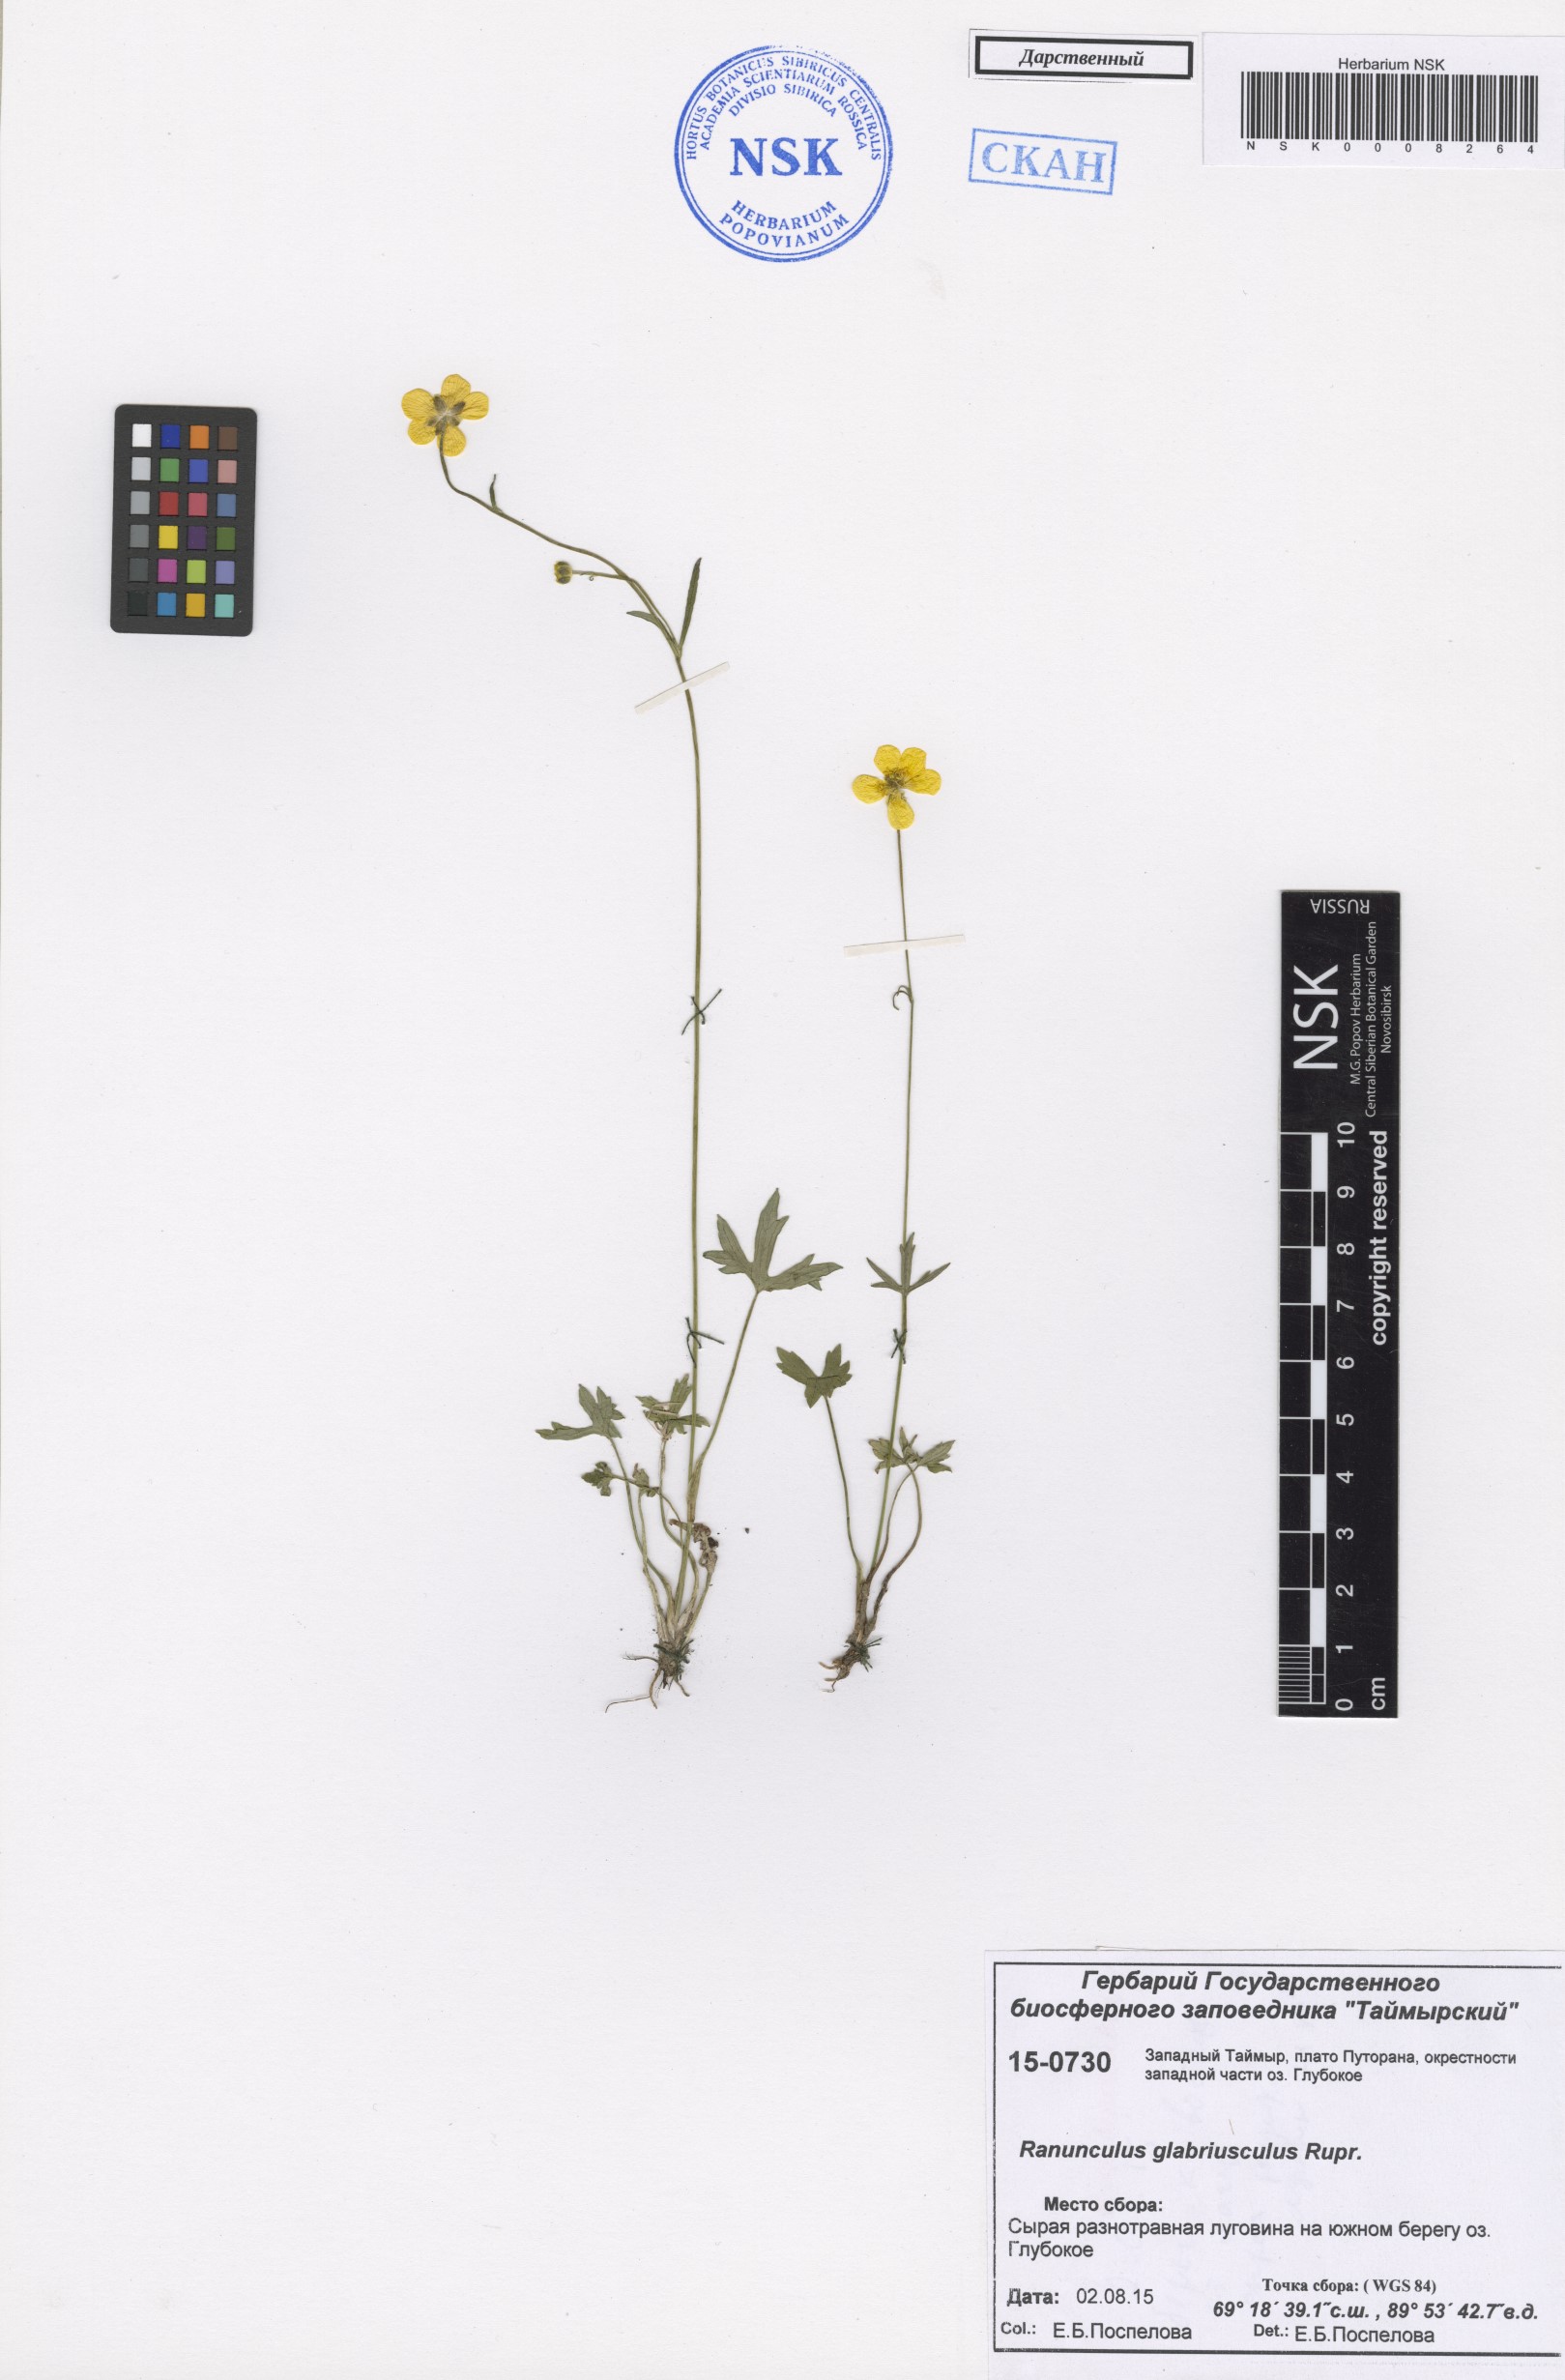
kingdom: Plantae
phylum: Tracheophyta
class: Magnoliopsida
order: Ranunculales
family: Ranunculaceae
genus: Ranunculus
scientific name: Ranunculus propinquus
